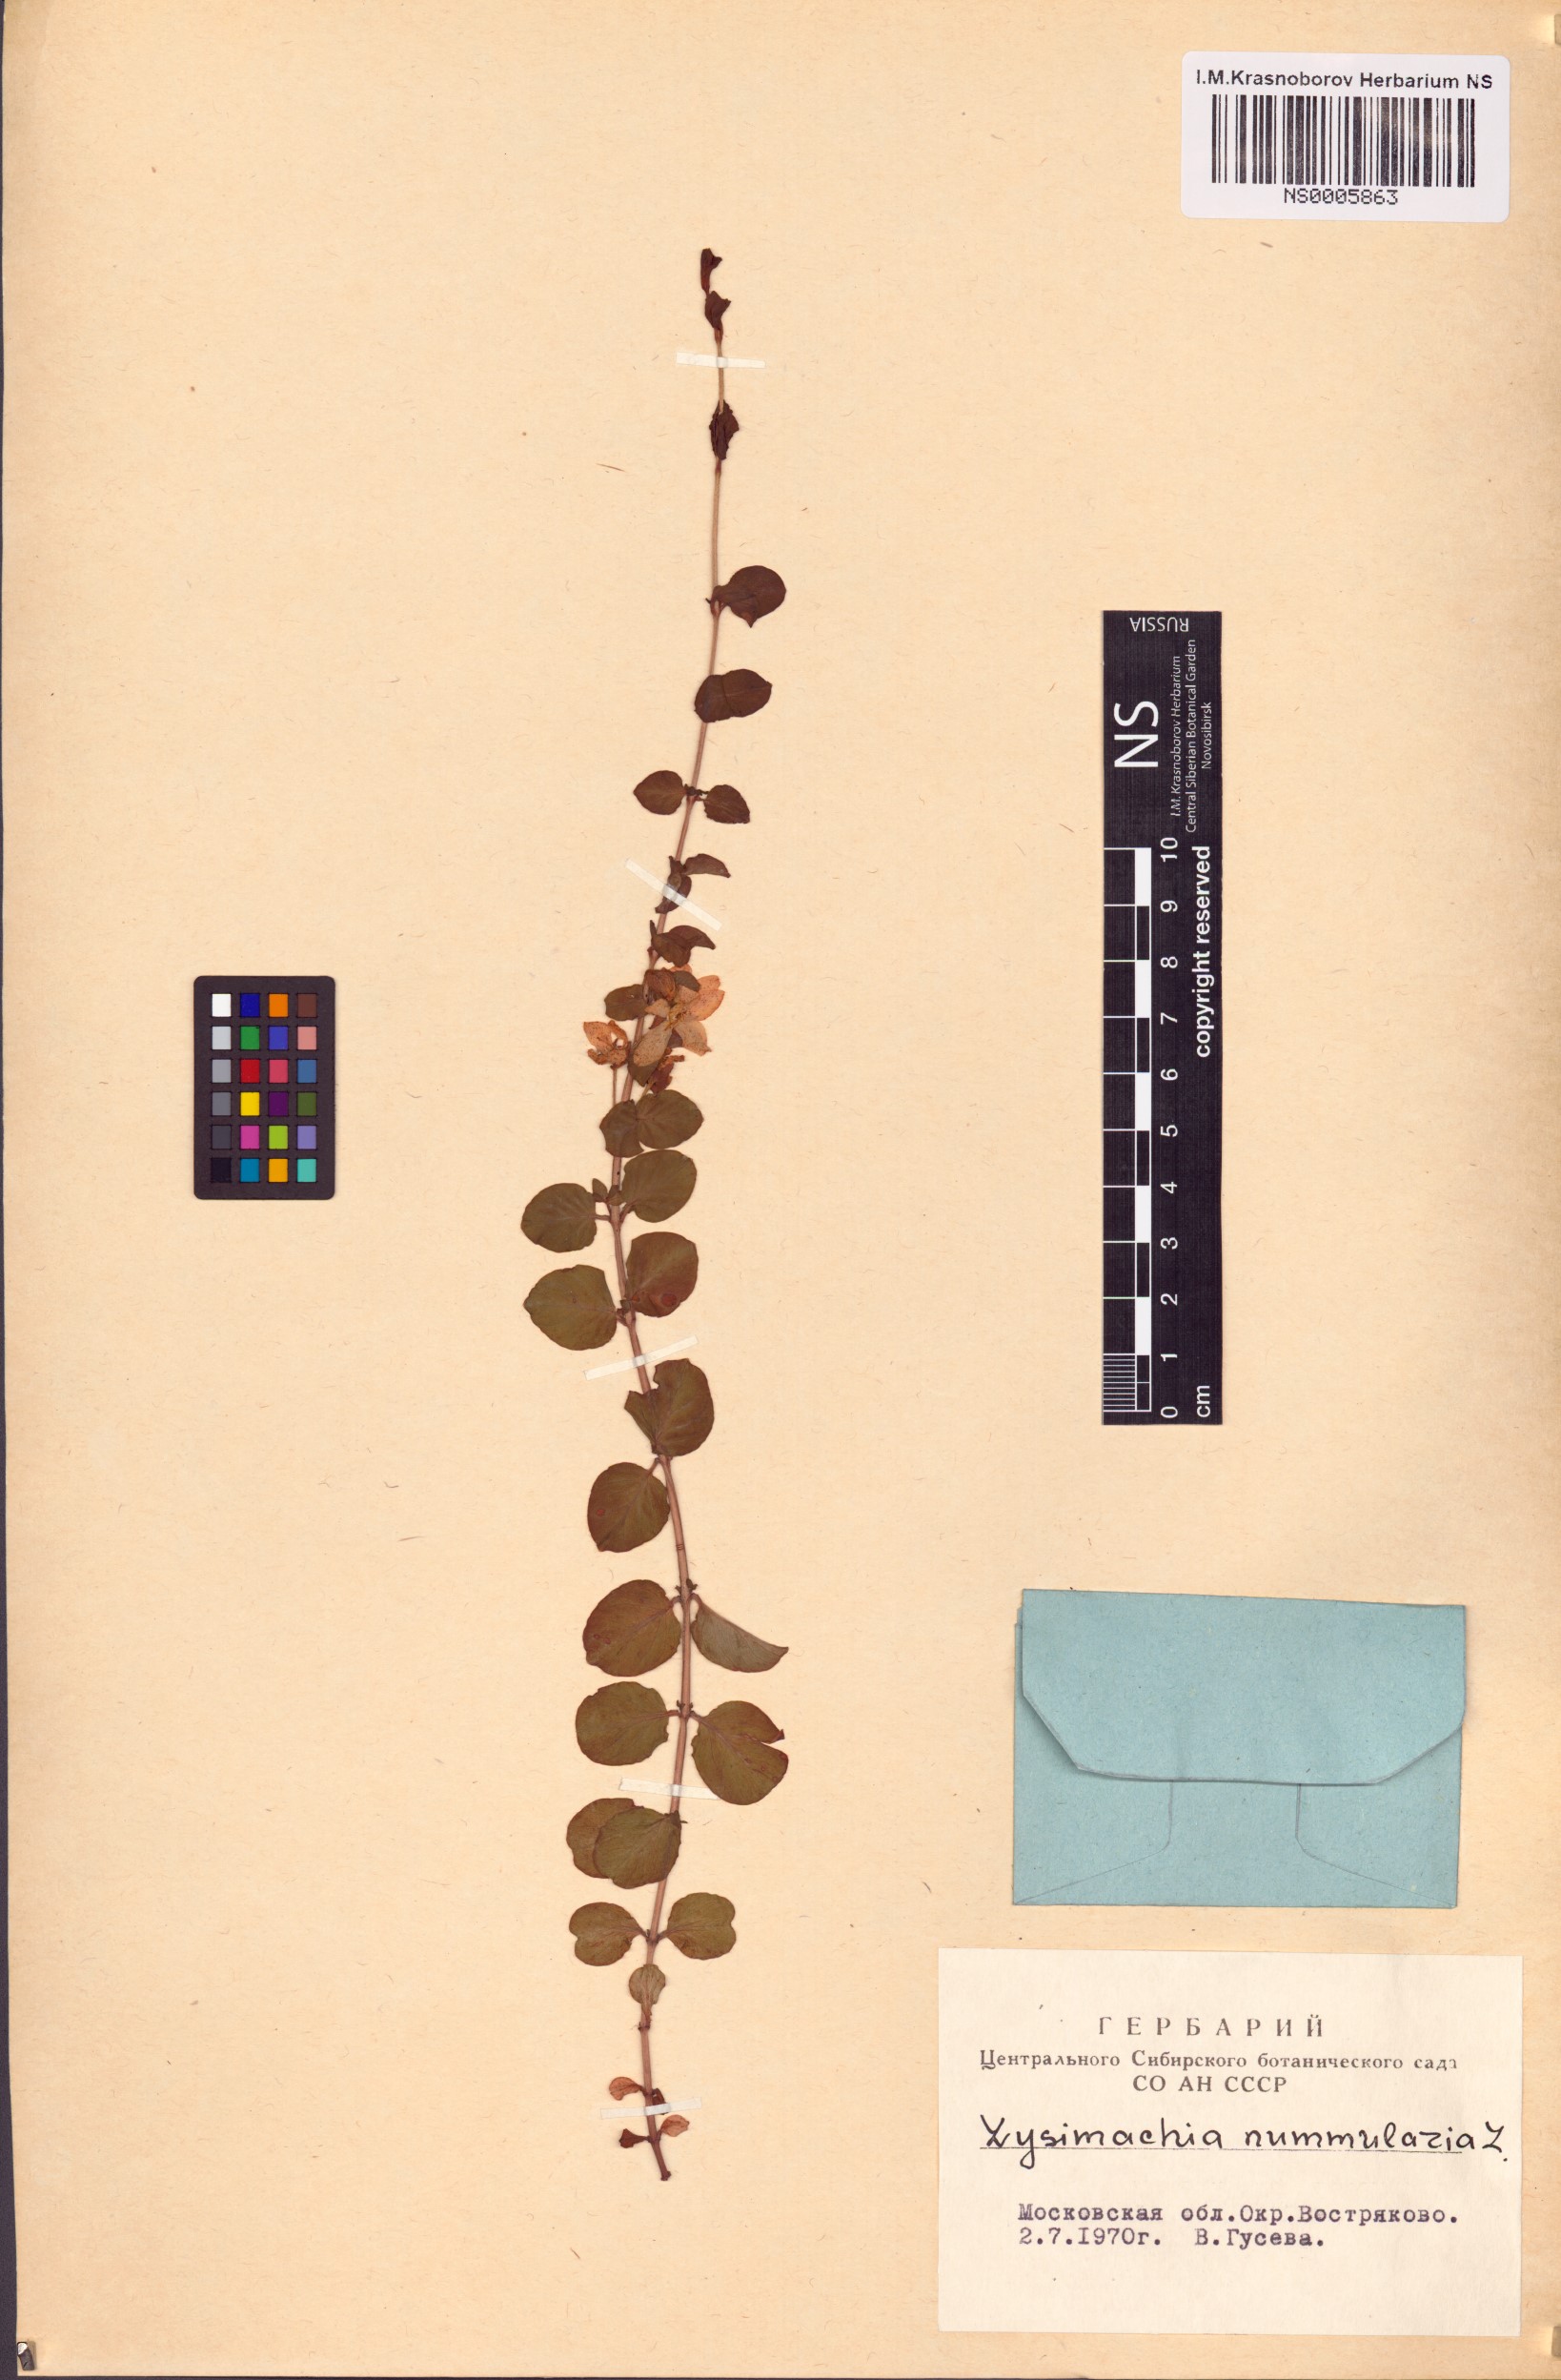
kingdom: Plantae
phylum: Tracheophyta
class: Magnoliopsida
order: Ericales
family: Primulaceae
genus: Lysimachia
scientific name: Lysimachia nummularia
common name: Moneywort
